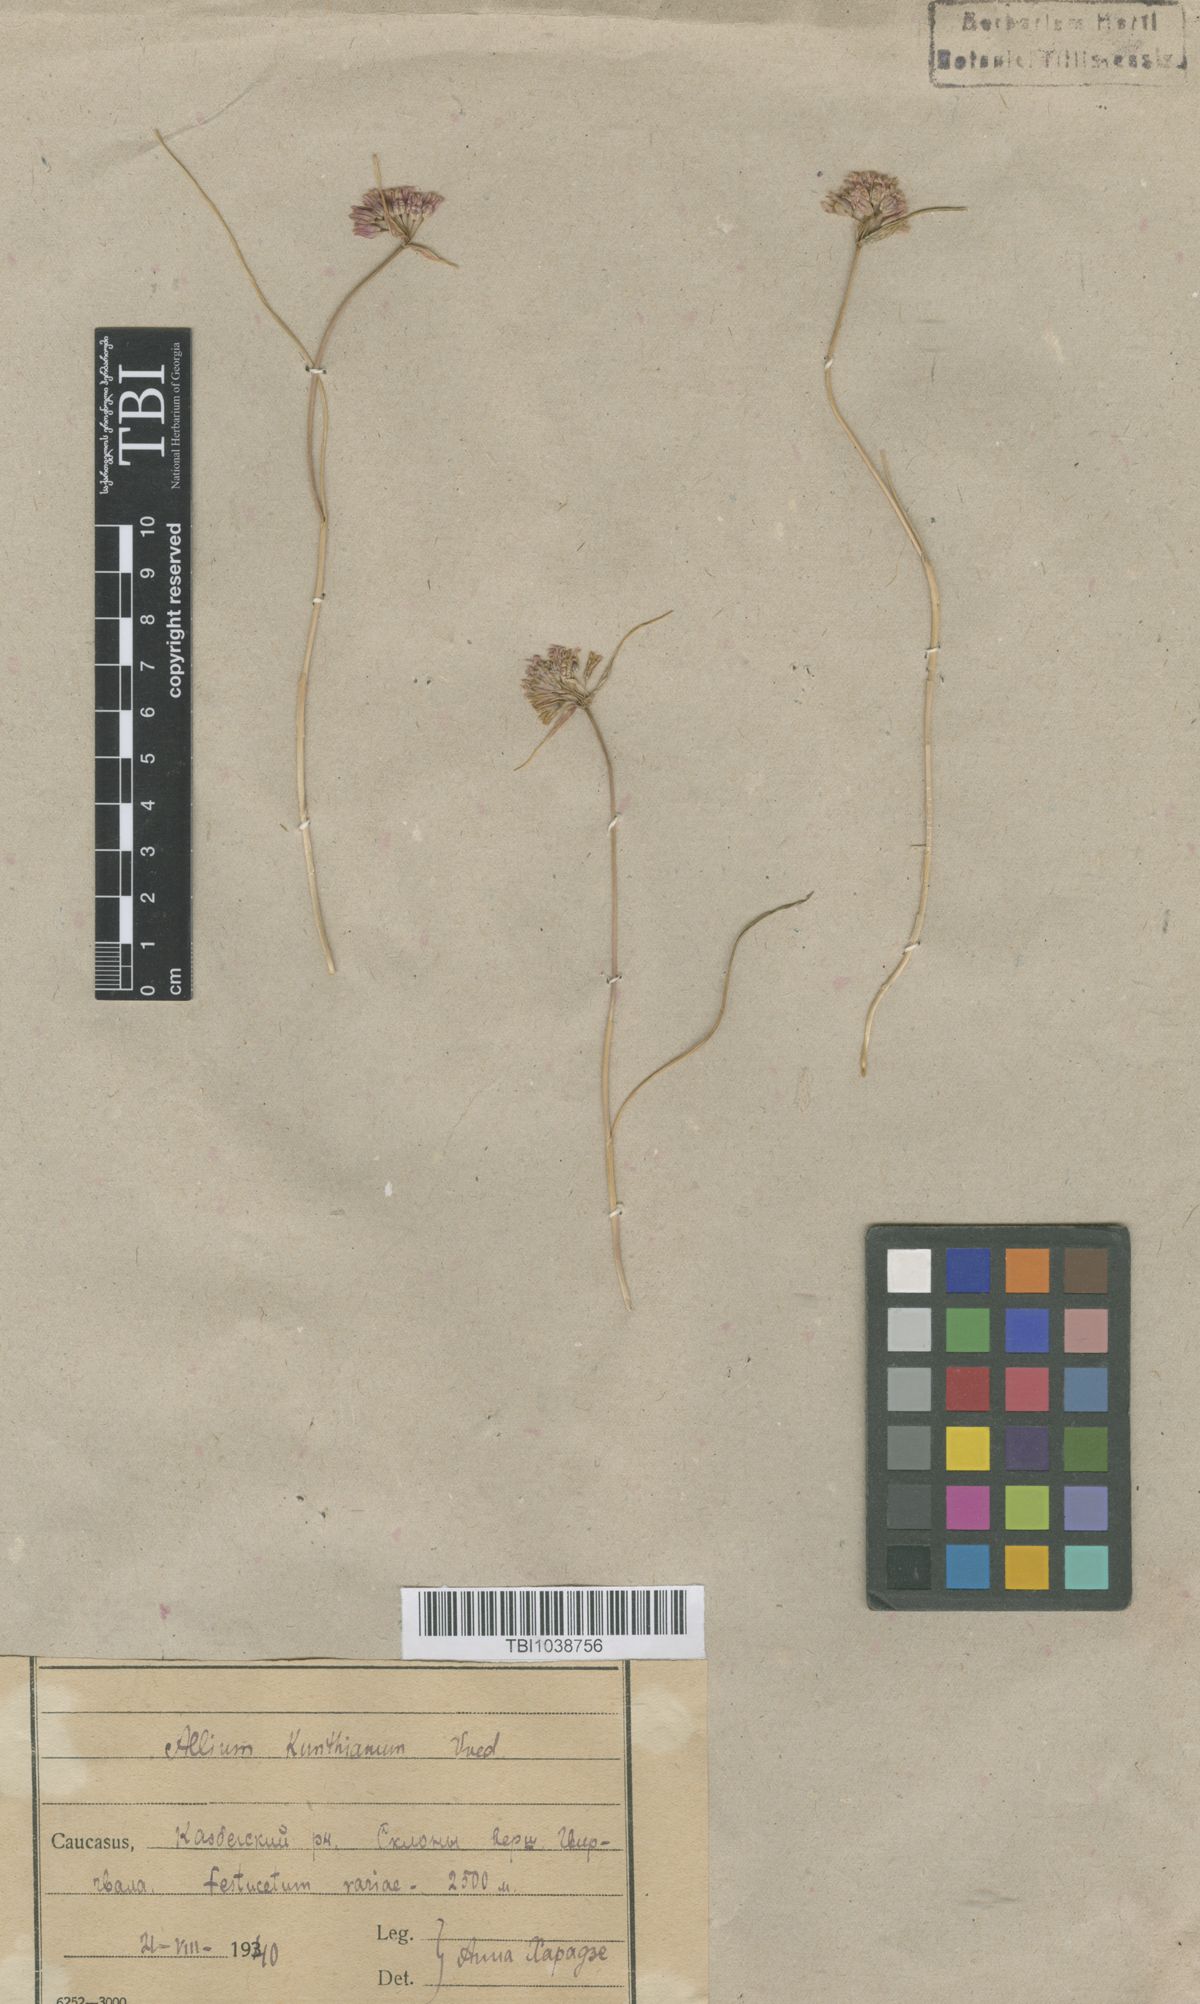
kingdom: Plantae
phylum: Tracheophyta
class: Liliopsida
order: Asparagales
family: Amaryllidaceae
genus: Allium
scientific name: Allium kunthianum
